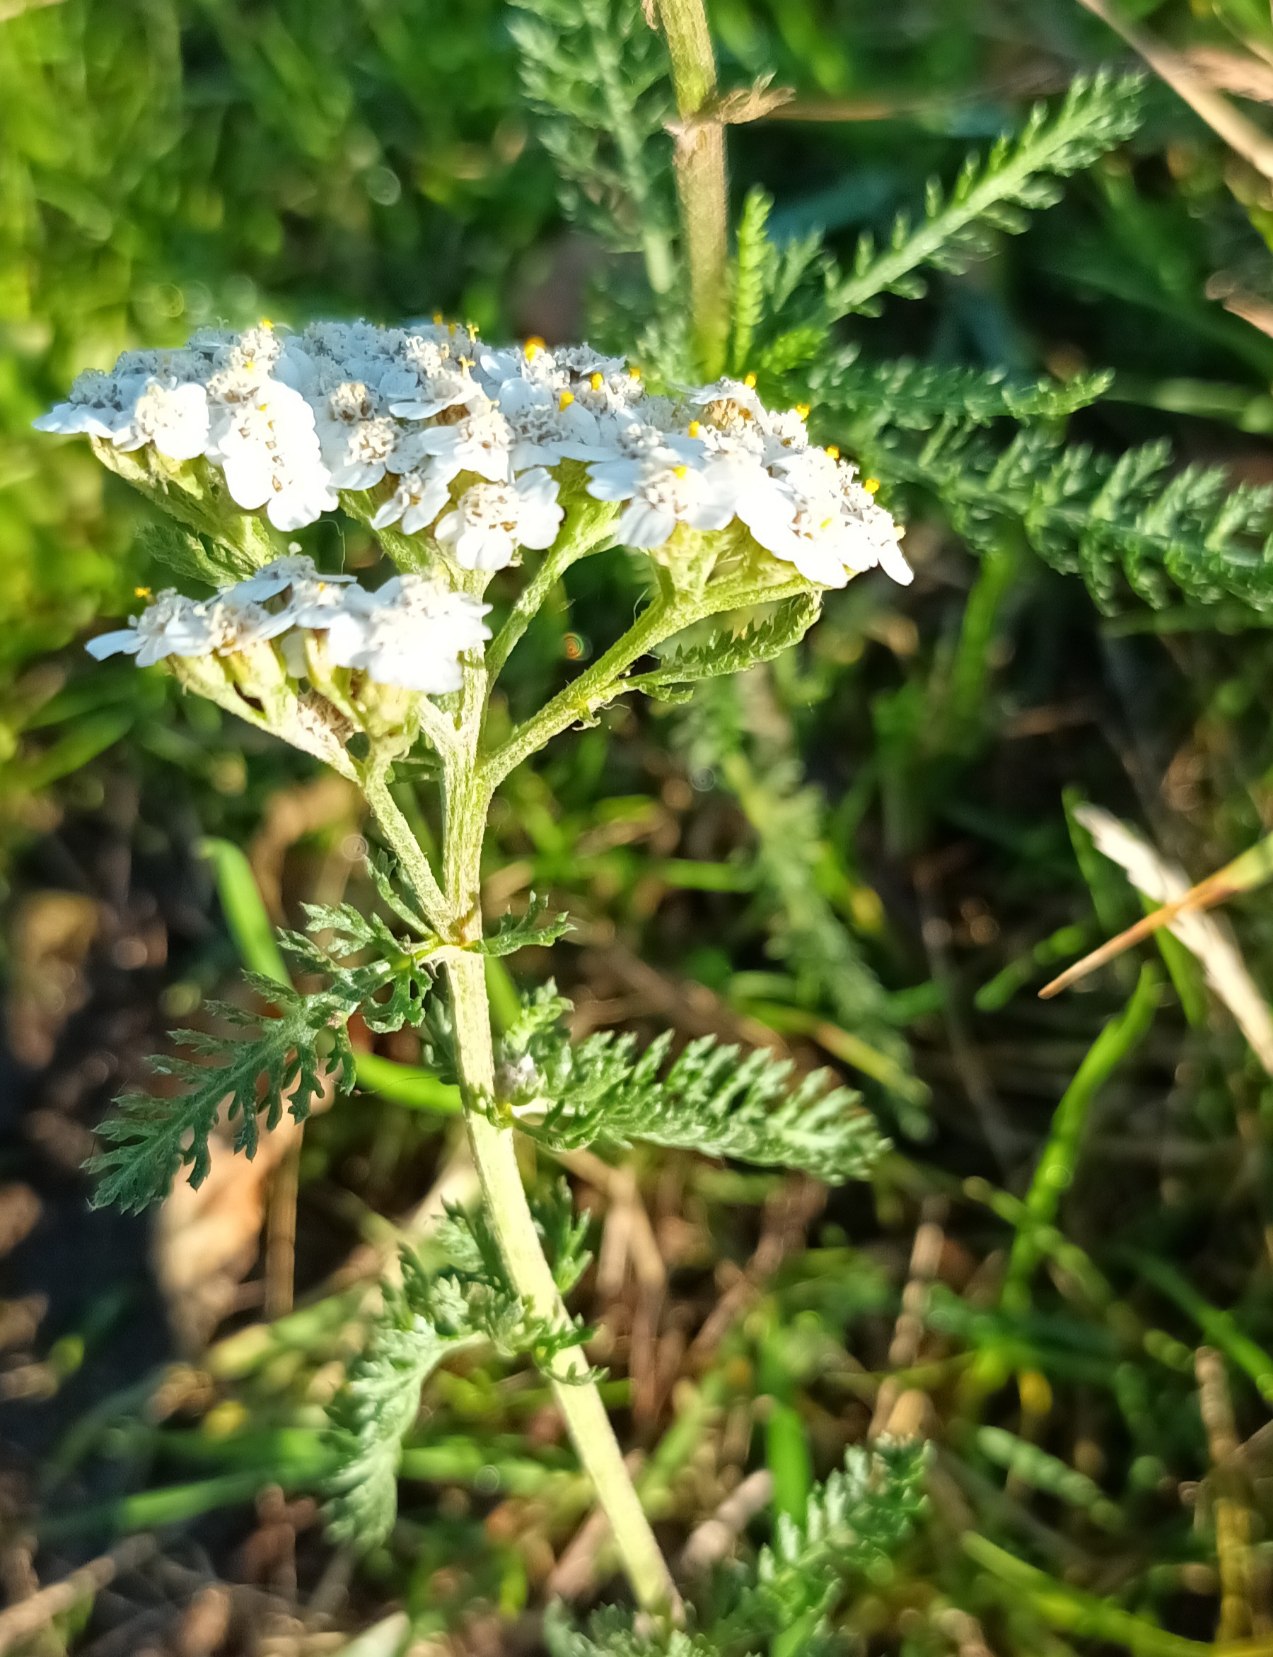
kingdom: Plantae
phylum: Tracheophyta
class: Magnoliopsida
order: Asterales
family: Asteraceae
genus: Achillea
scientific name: Achillea millefolium
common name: Almindelig røllike
